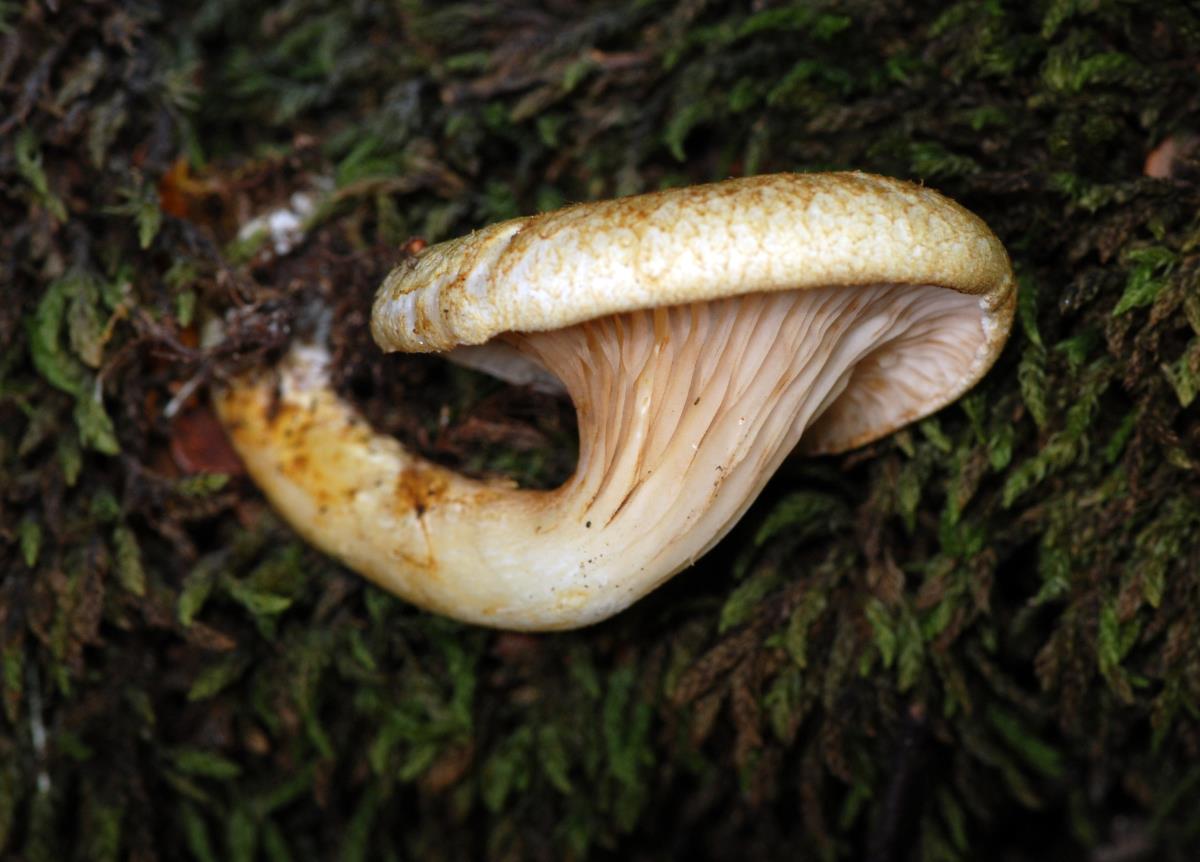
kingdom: Fungi
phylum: Basidiomycota
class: Agaricomycetes
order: Boletales
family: Serpulaceae
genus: Austropaxillus
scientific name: Austropaxillus mcnabbii
